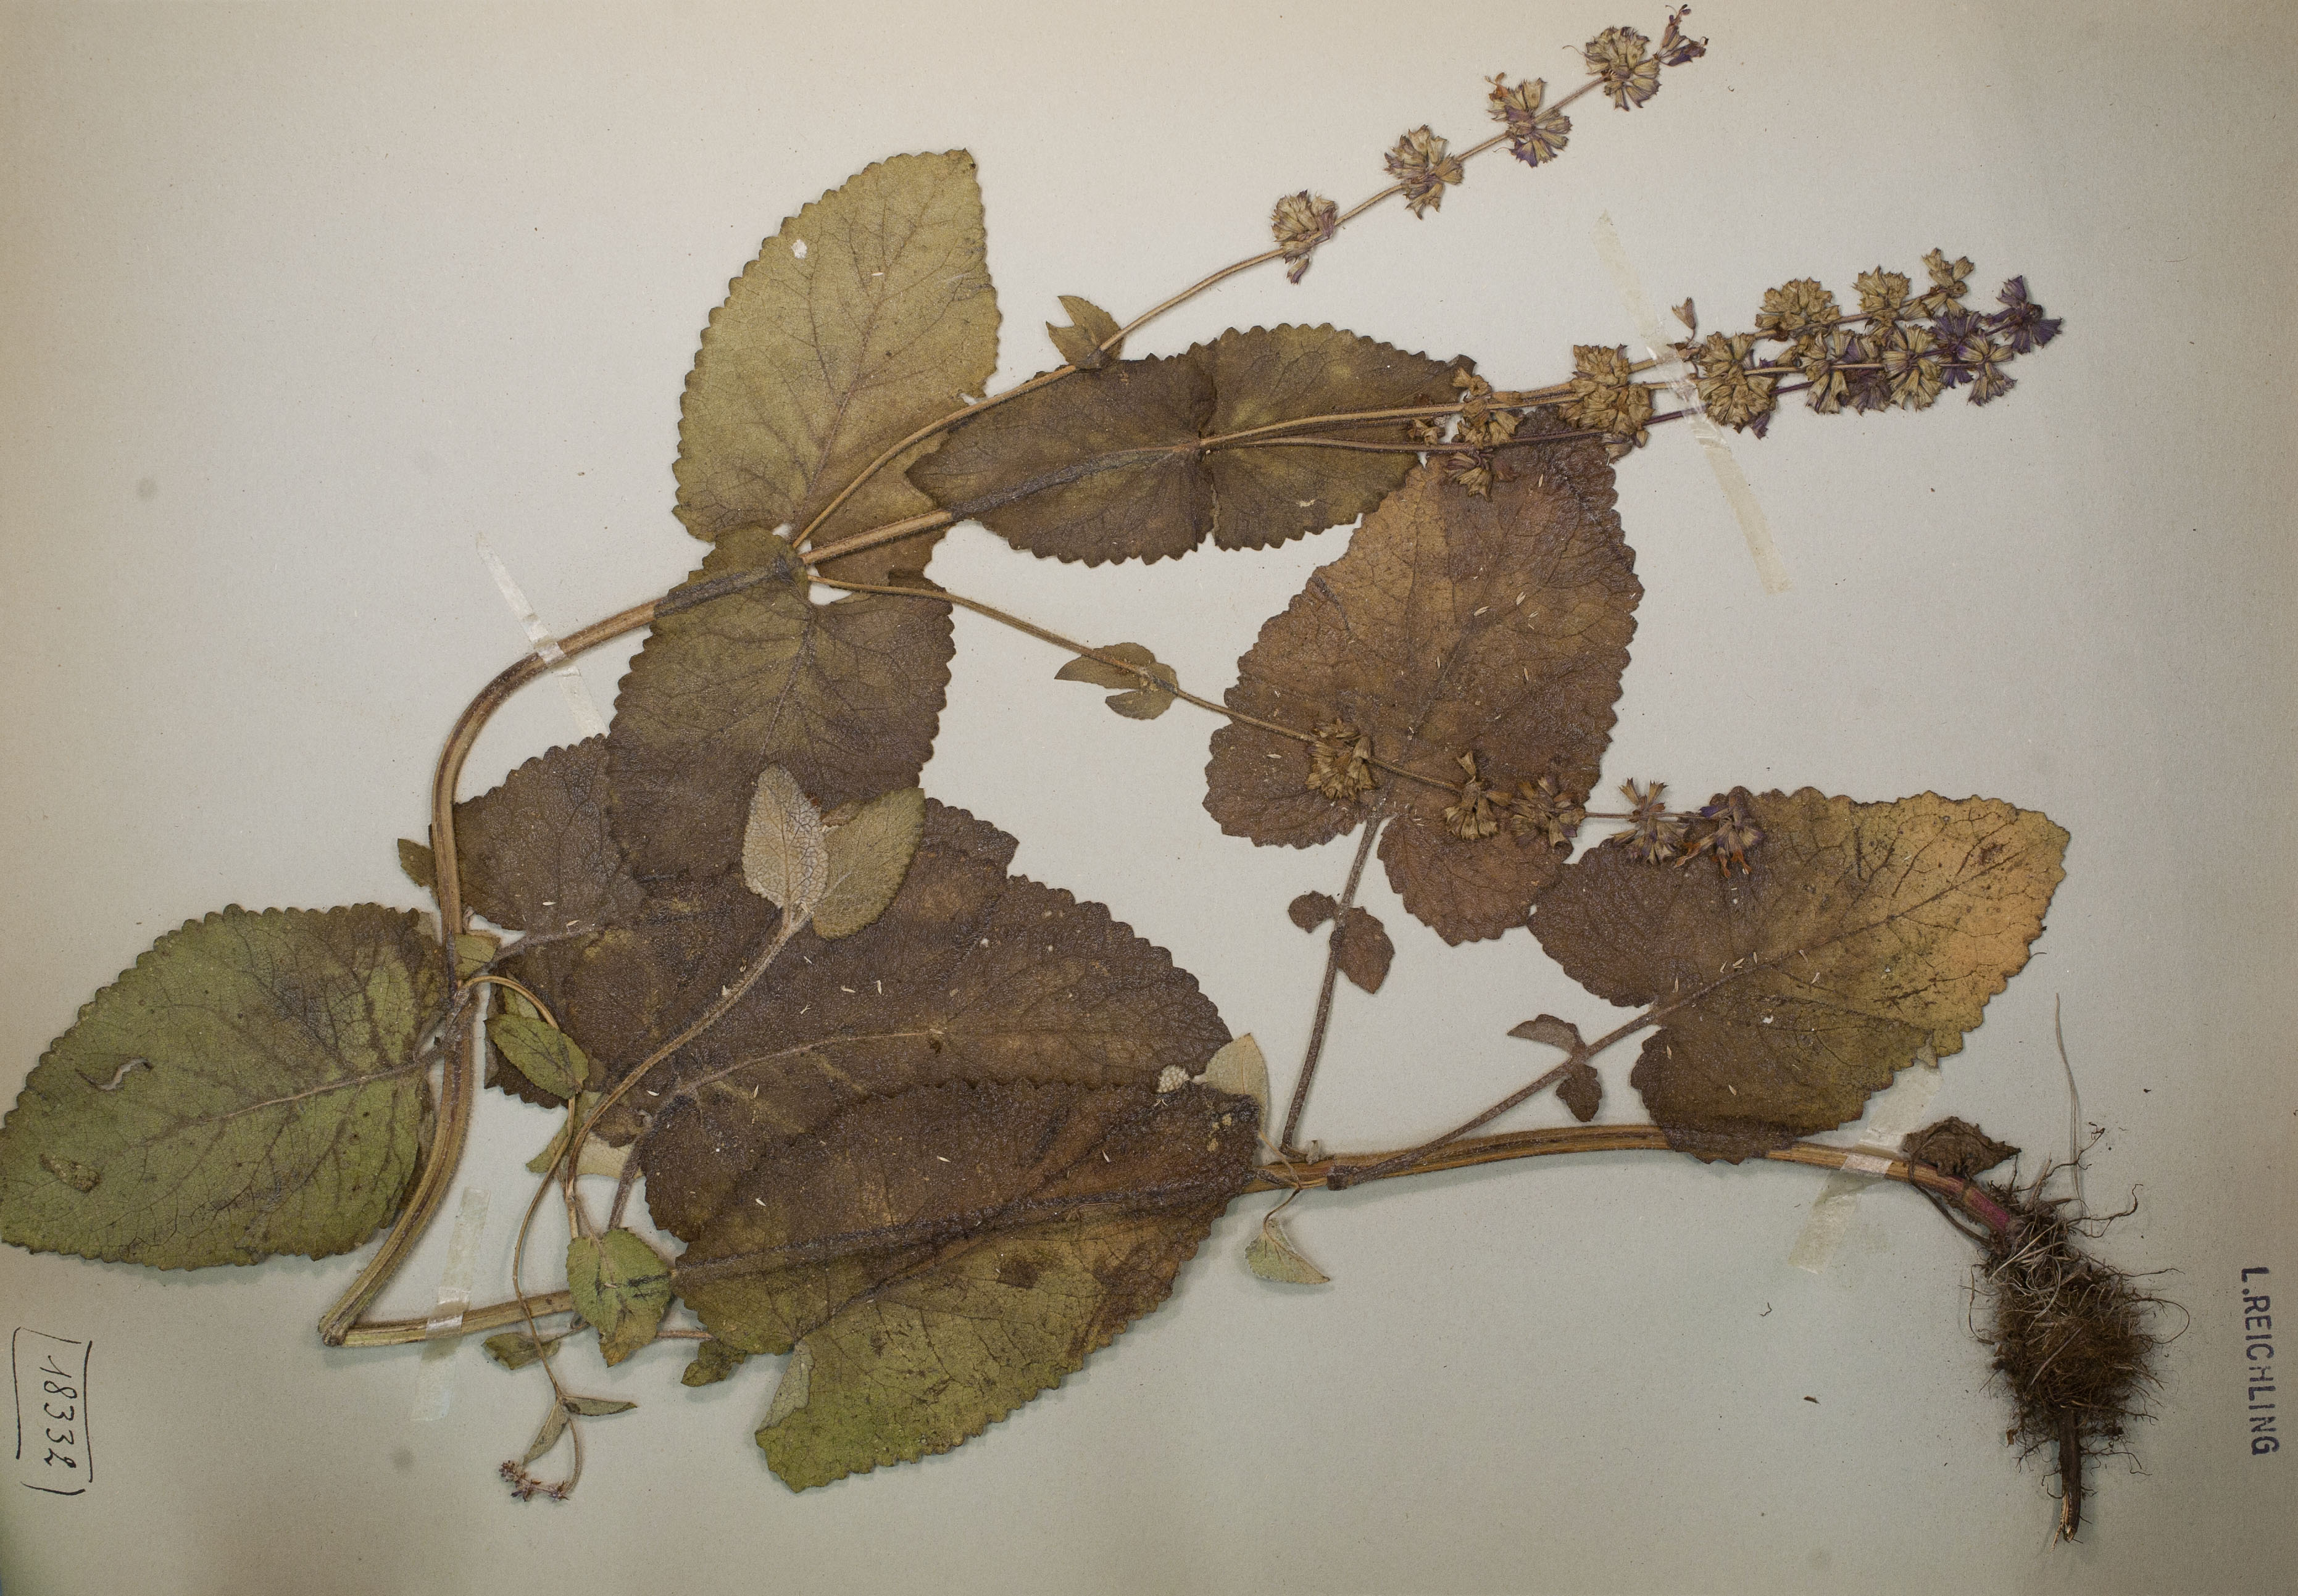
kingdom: Plantae
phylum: Tracheophyta
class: Magnoliopsida
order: Lamiales
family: Lamiaceae
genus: Salvia
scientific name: Salvia verticillata
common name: Whorled clary
